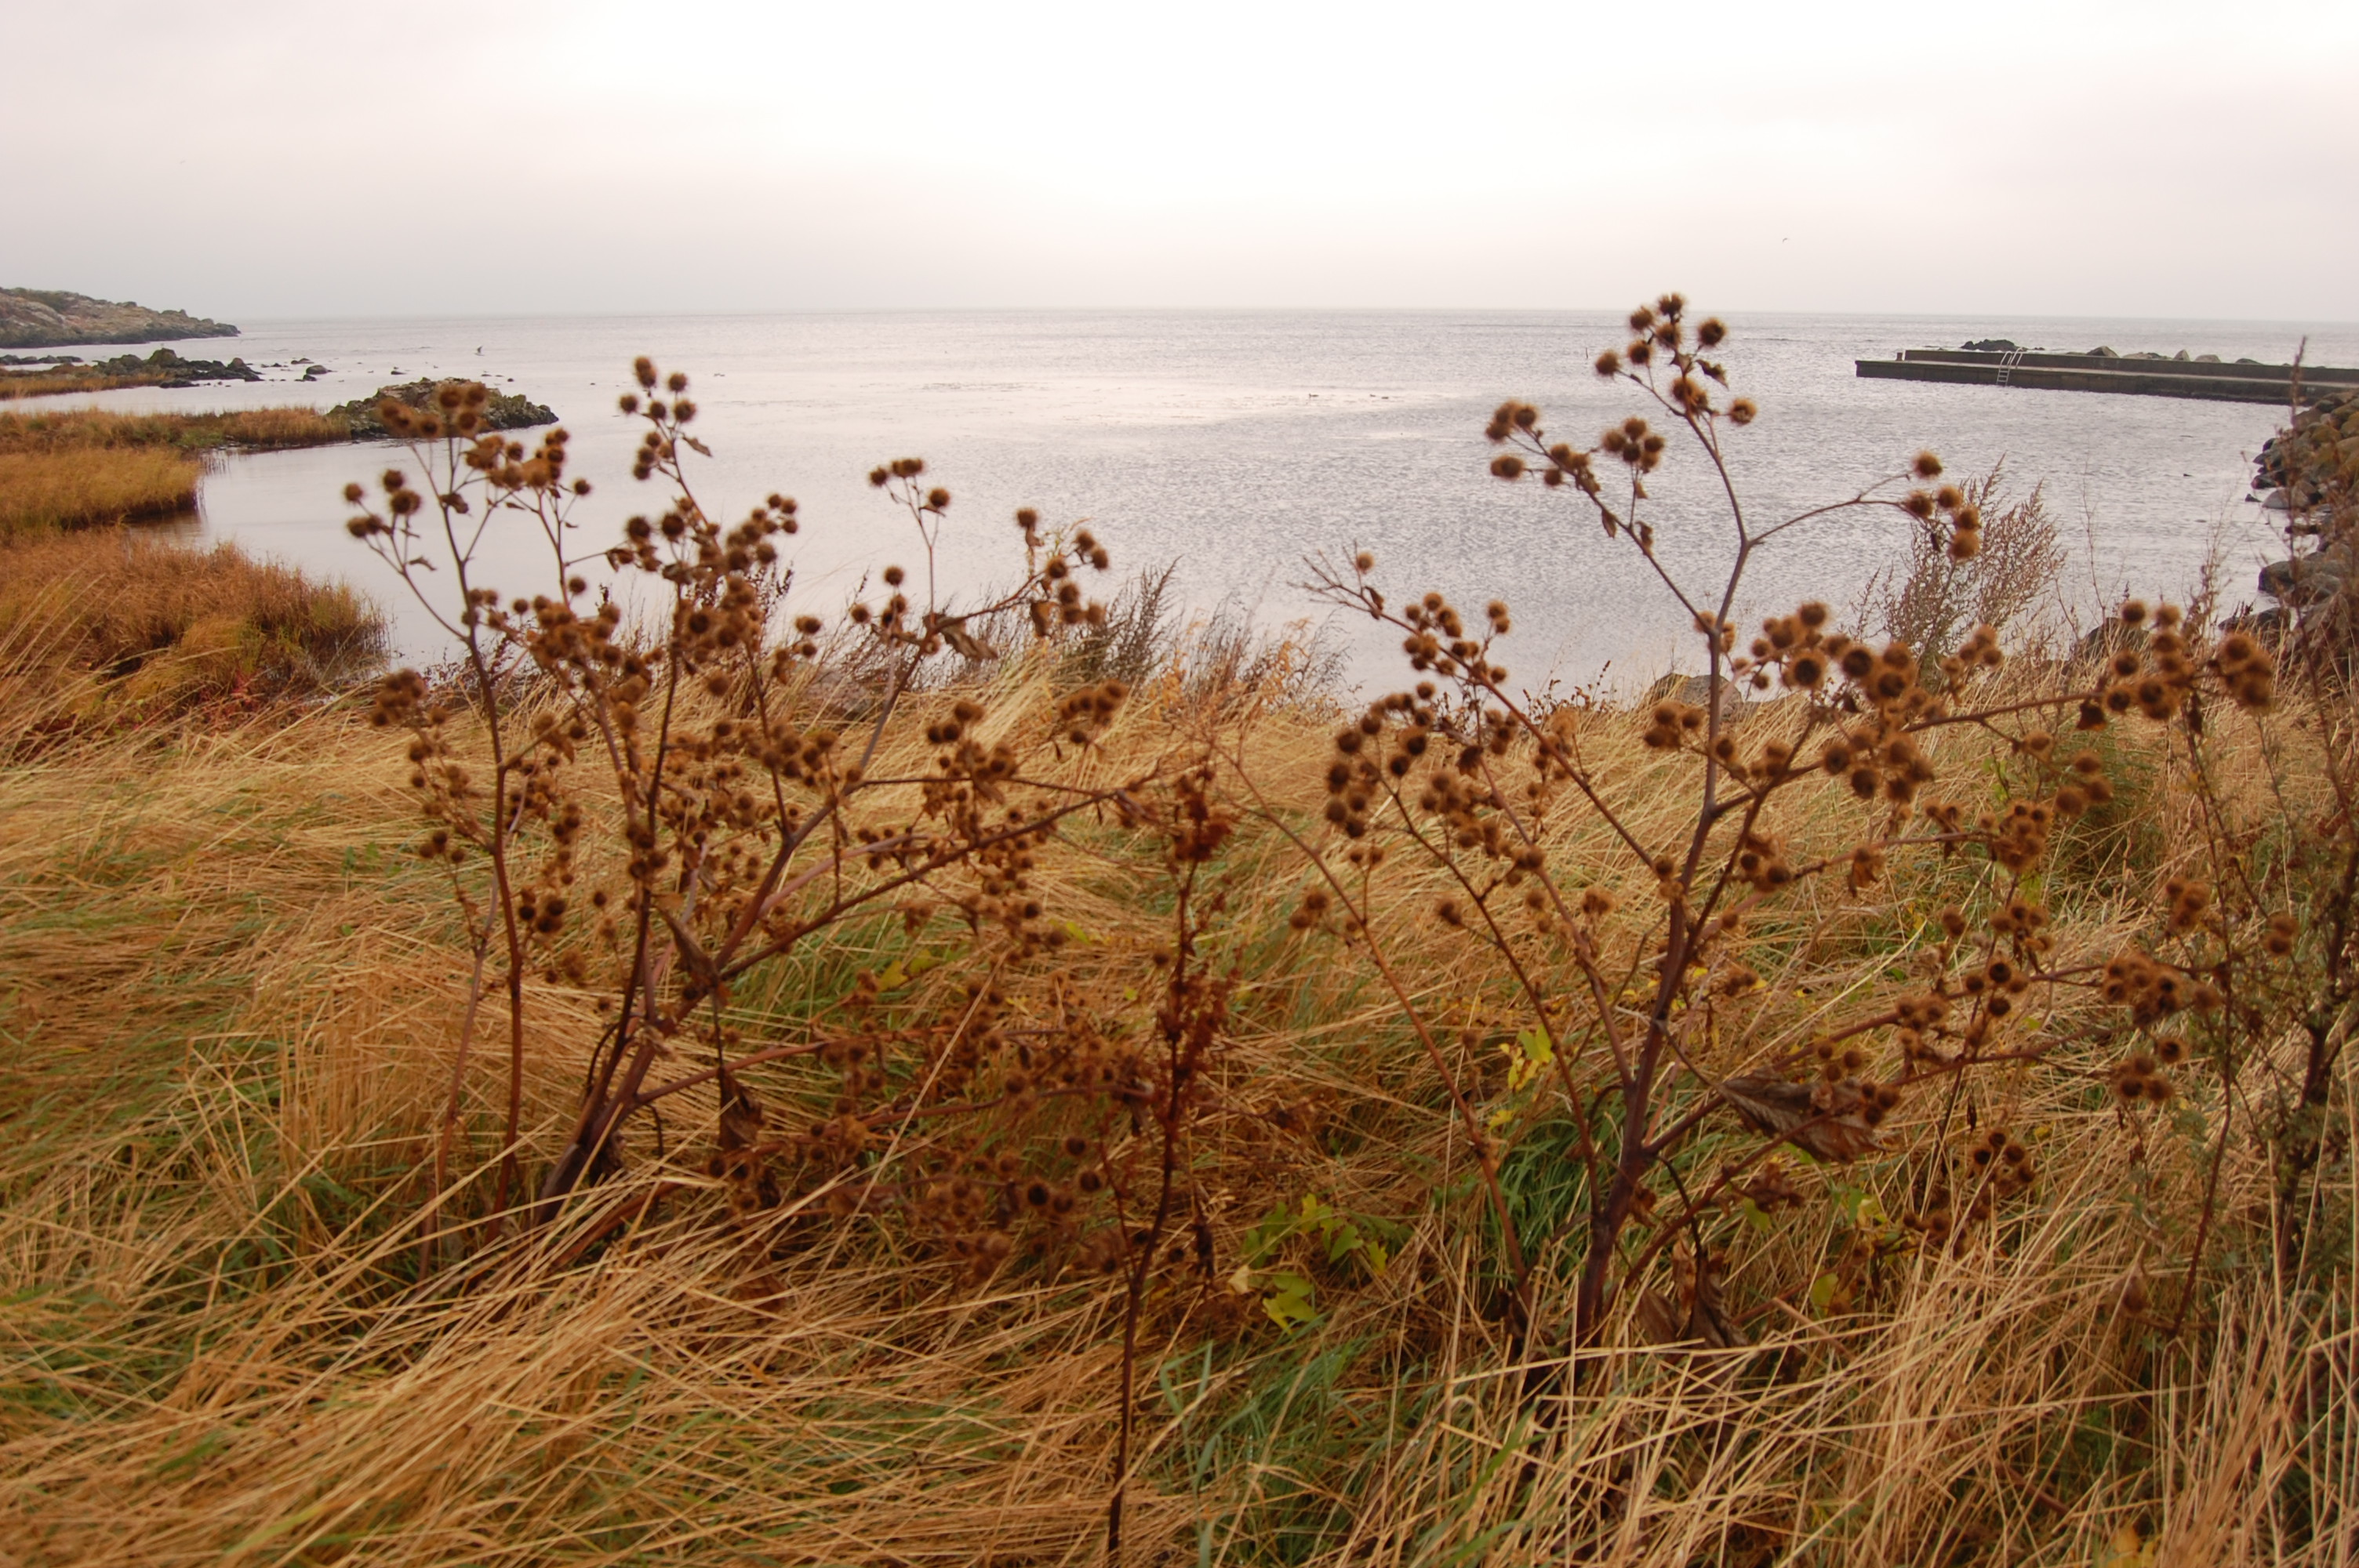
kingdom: Plantae
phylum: Tracheophyta
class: Magnoliopsida
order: Asterales
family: Asteraceae
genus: Arctium
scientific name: Arctium lappa
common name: Greater burdock
